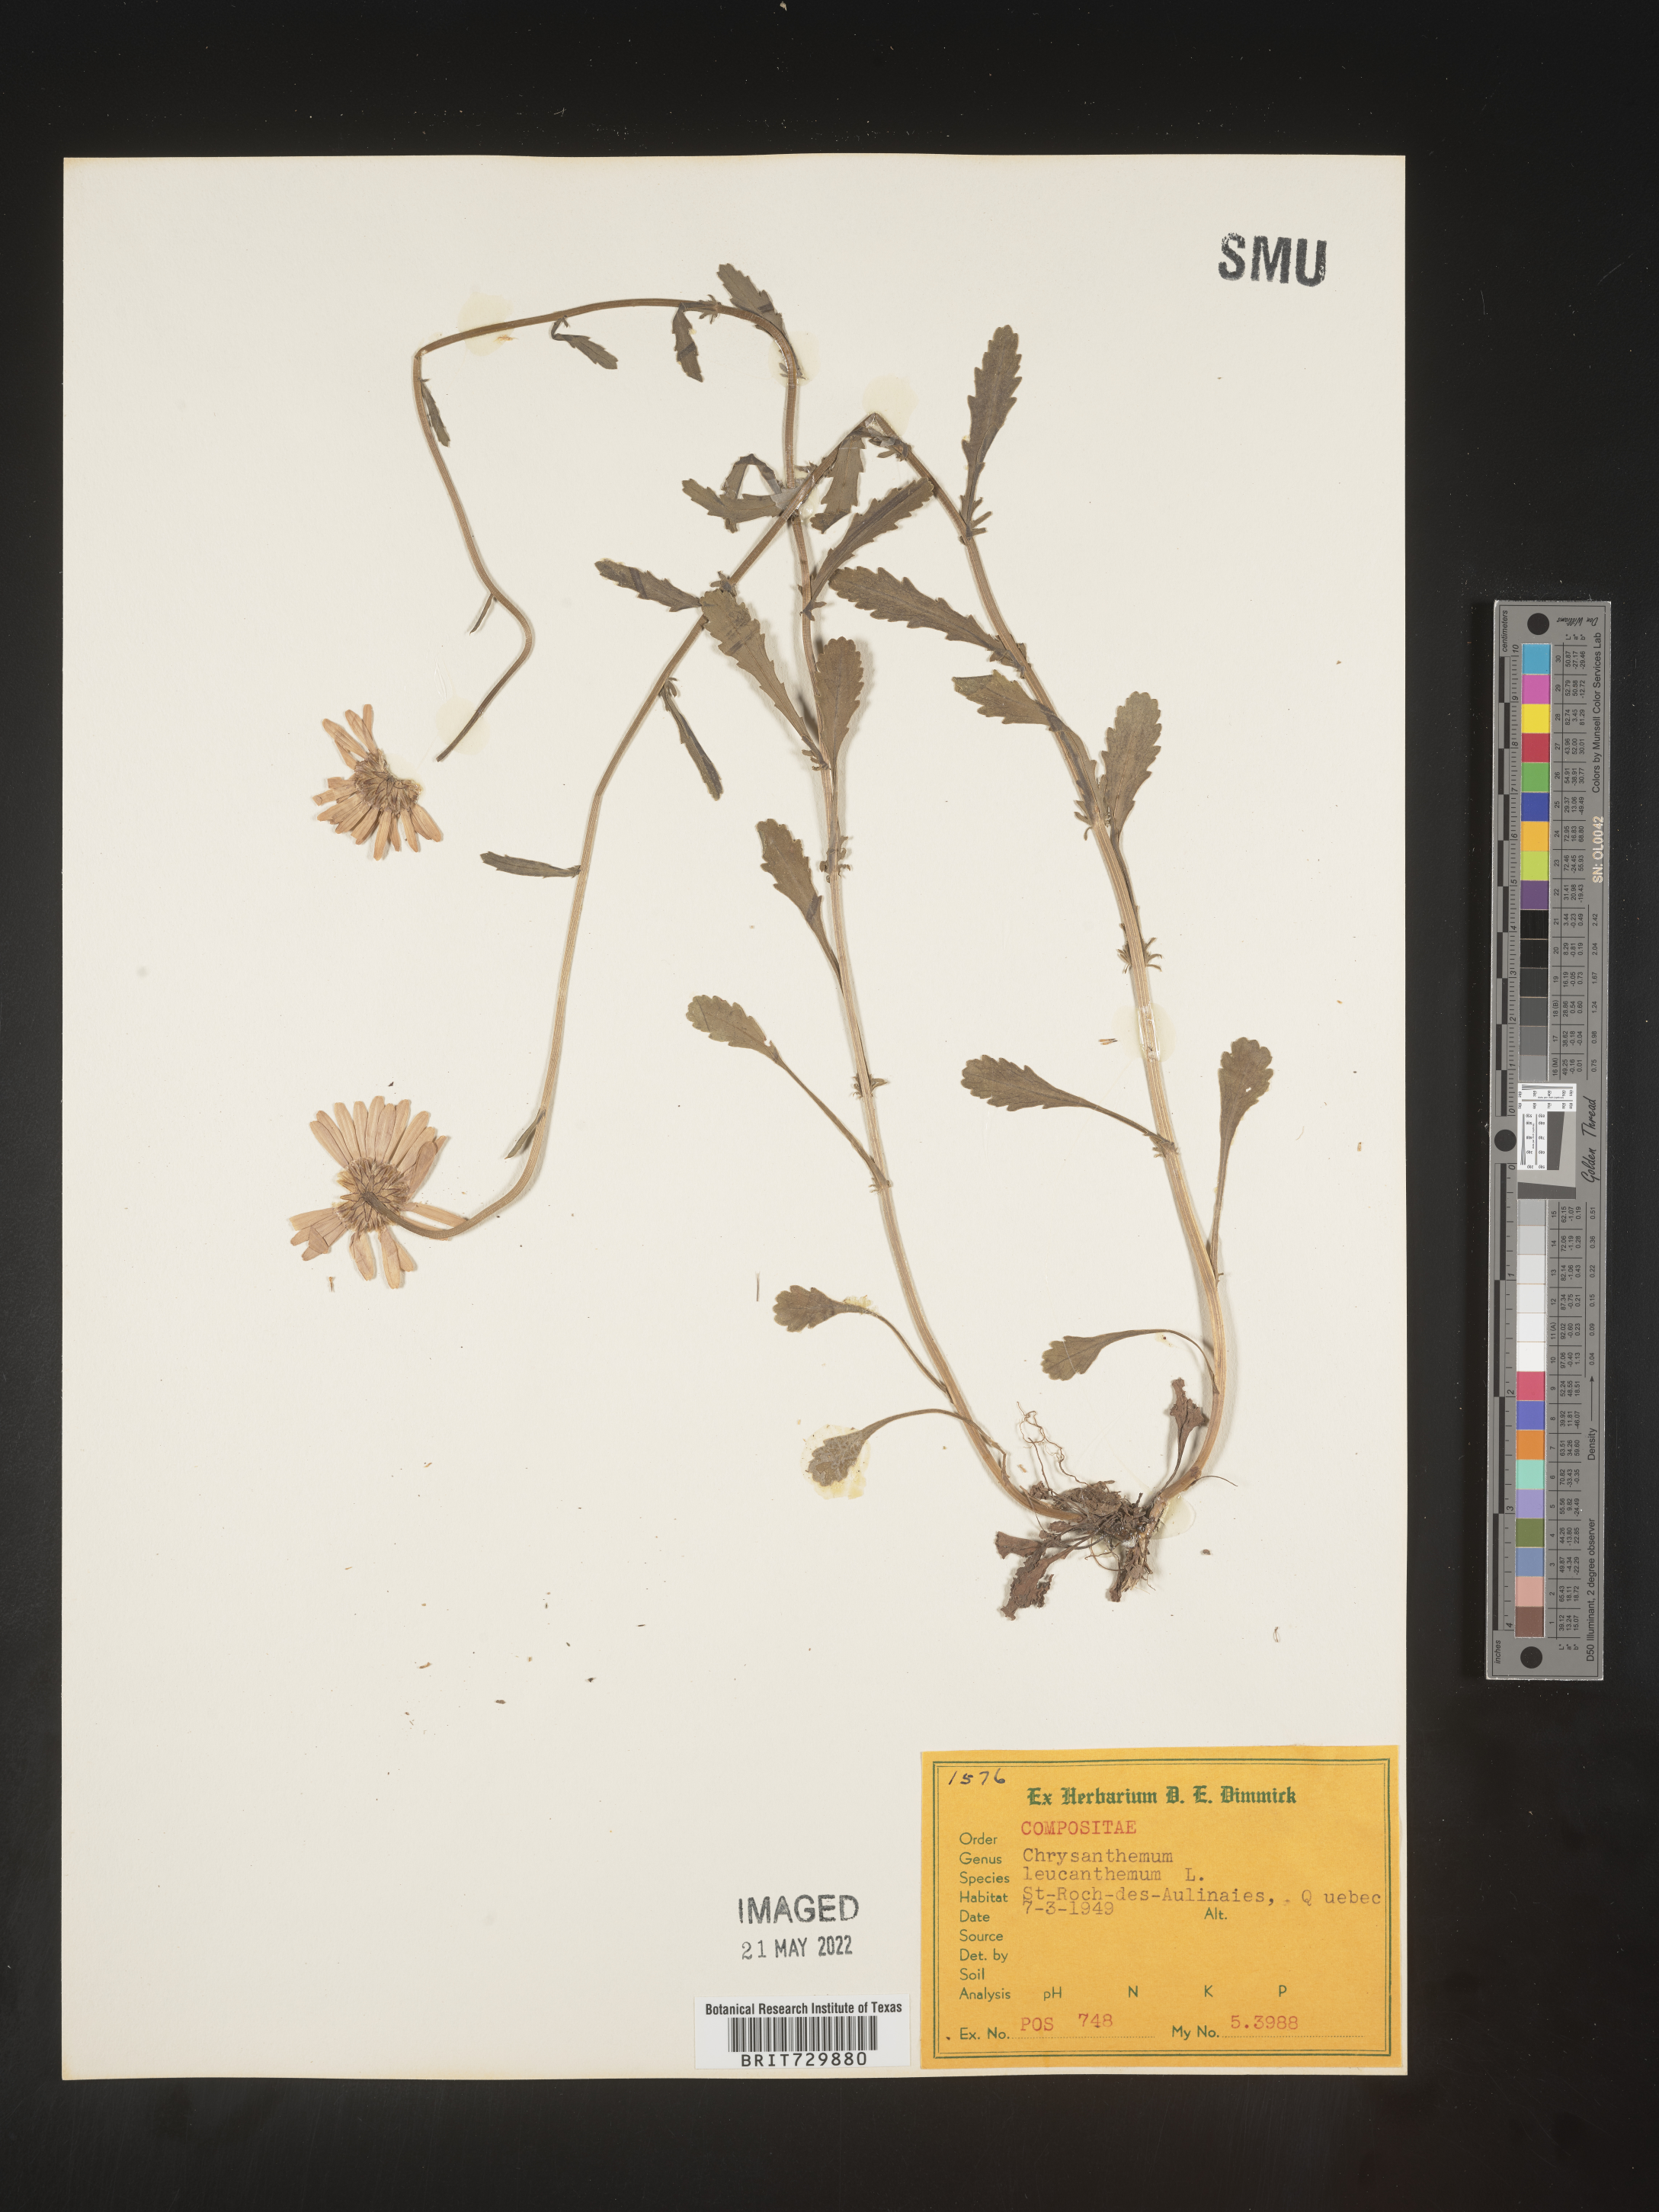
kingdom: Plantae
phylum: Tracheophyta
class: Magnoliopsida
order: Asterales
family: Asteraceae
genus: Leucanthemum
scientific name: Leucanthemum vulgare
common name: Oxeye daisy
